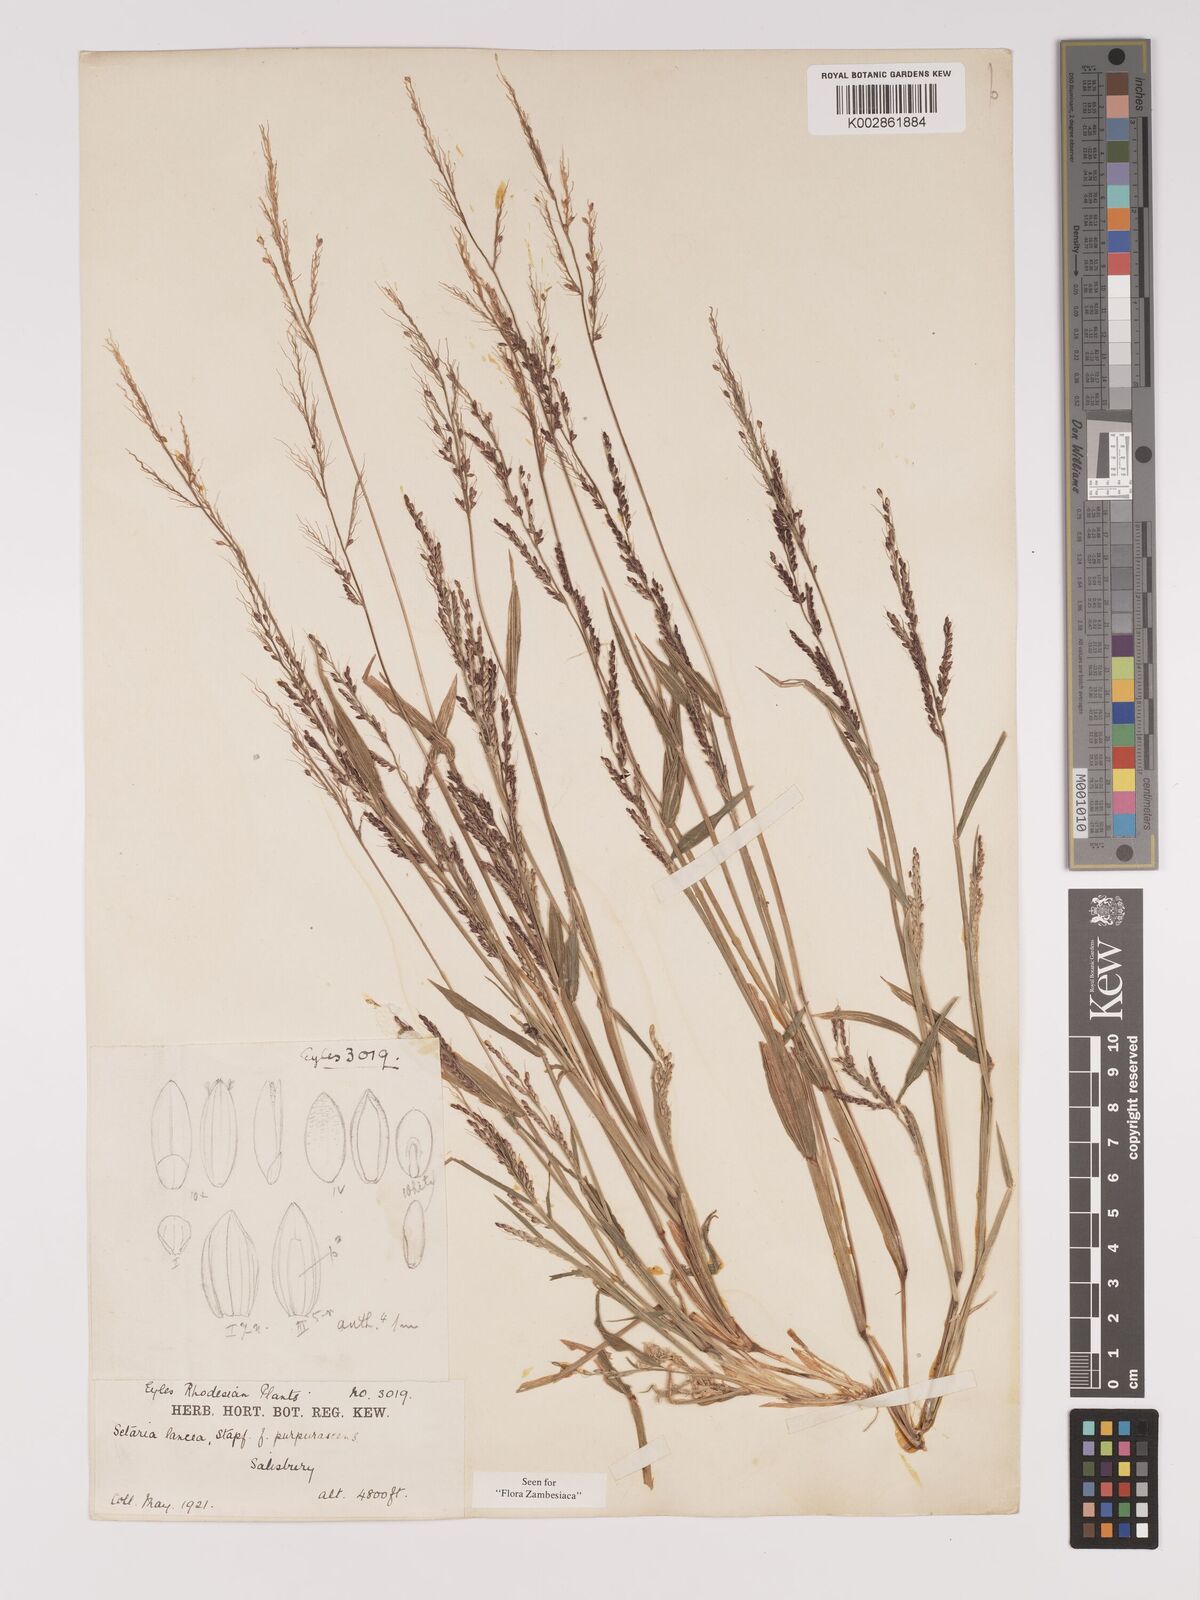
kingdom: Plantae
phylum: Tracheophyta
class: Liliopsida
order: Poales
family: Poaceae
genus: Setaria
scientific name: Setaria homonyma
